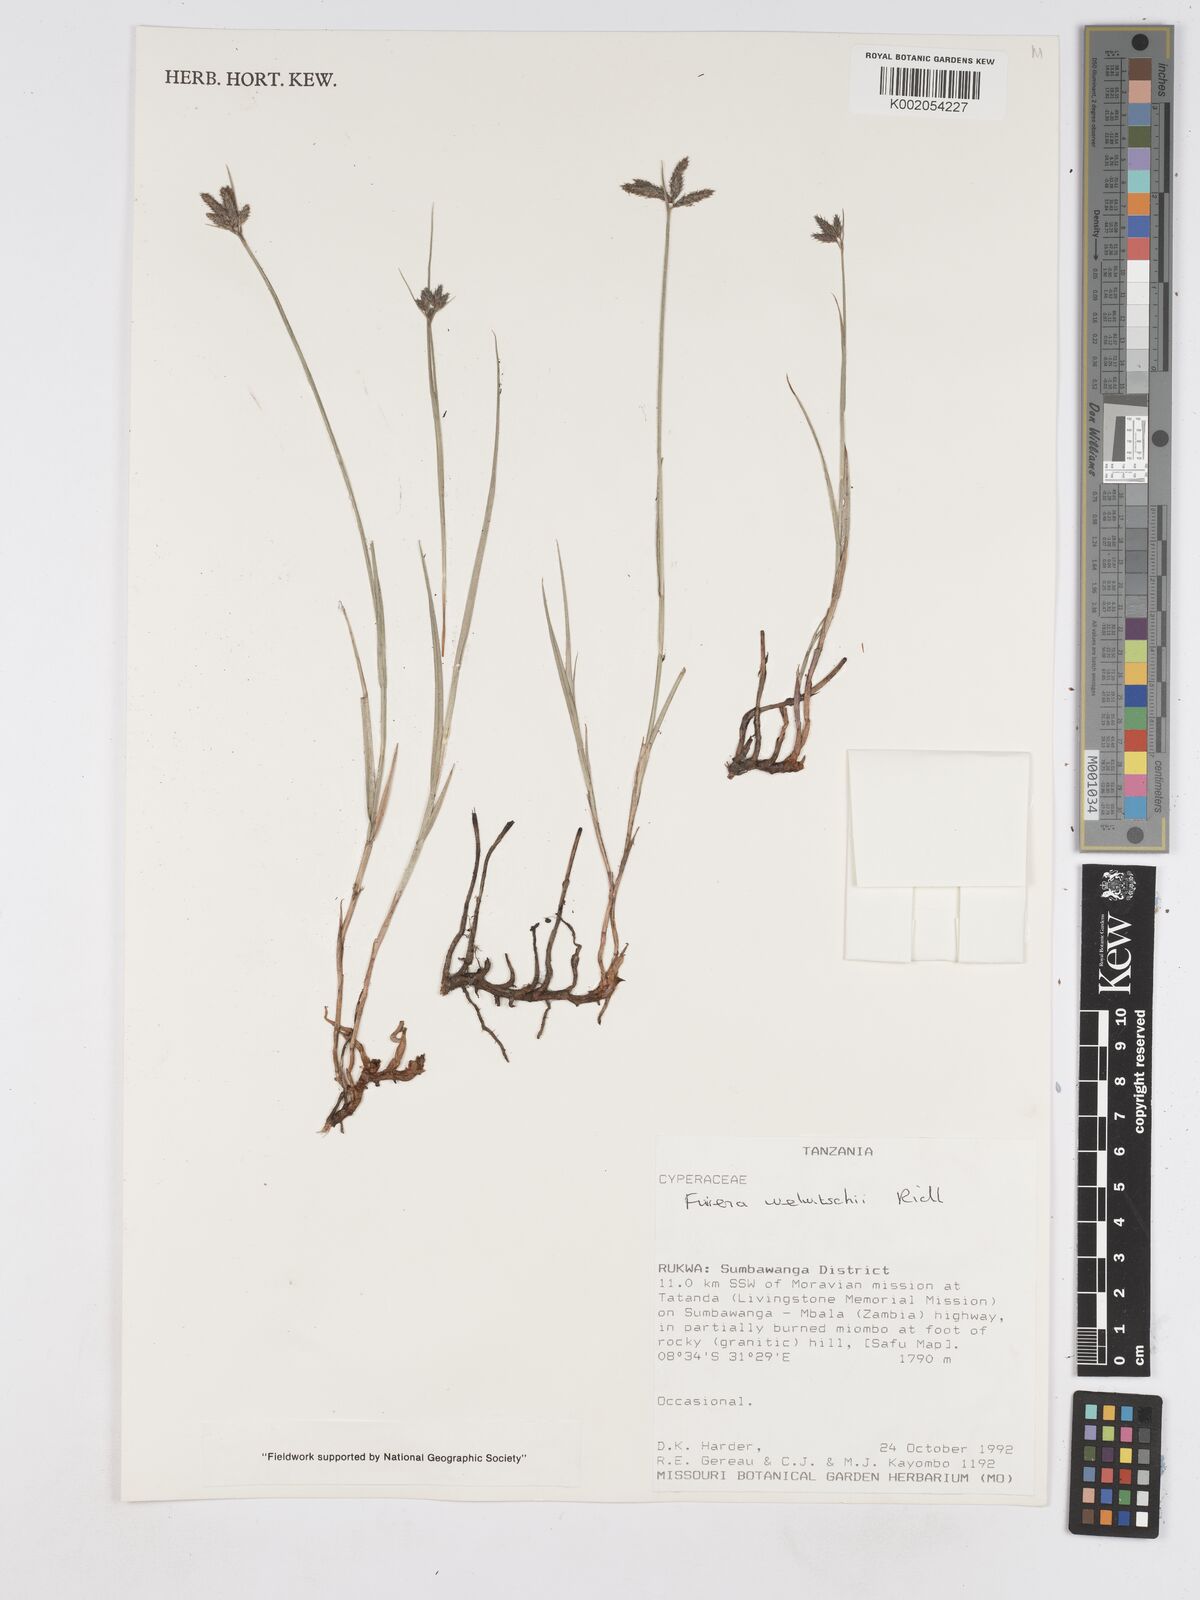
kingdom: Plantae
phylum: Tracheophyta
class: Liliopsida
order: Poales
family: Cyperaceae
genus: Fuirena
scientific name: Fuirena welwitschii
